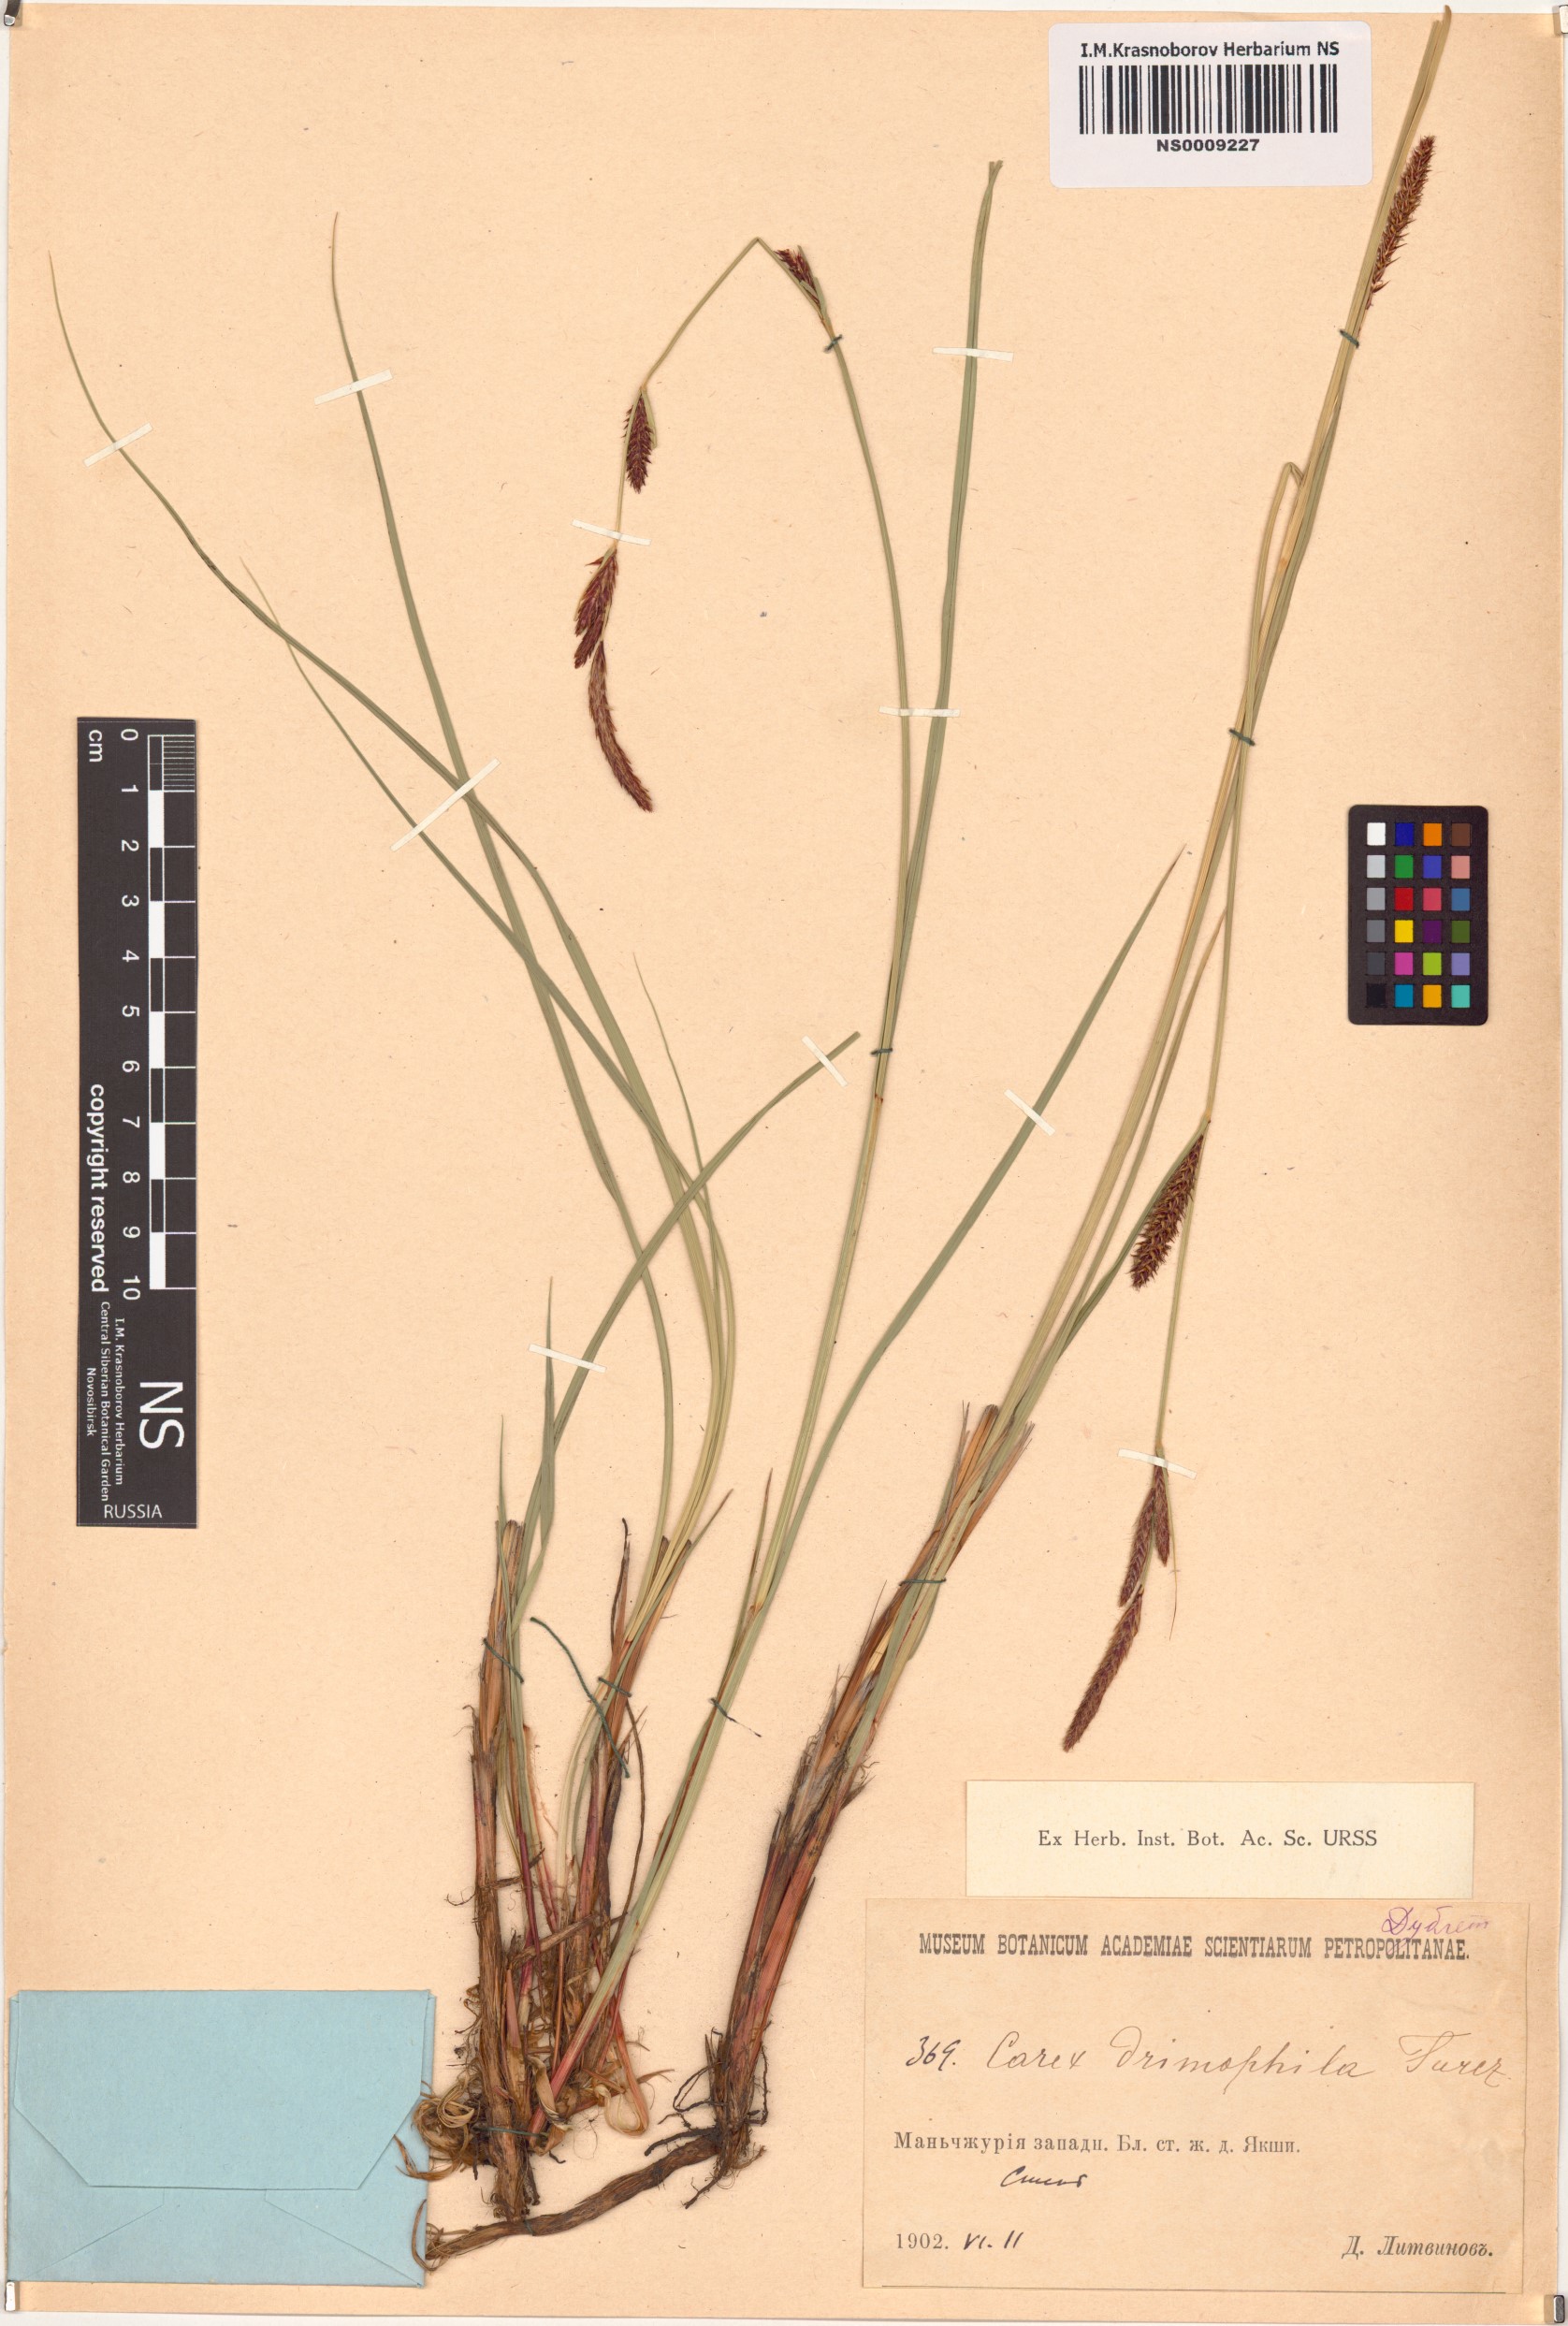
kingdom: Plantae
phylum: Tracheophyta
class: Liliopsida
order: Poales
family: Cyperaceae
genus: Carex
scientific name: Carex drymophila
